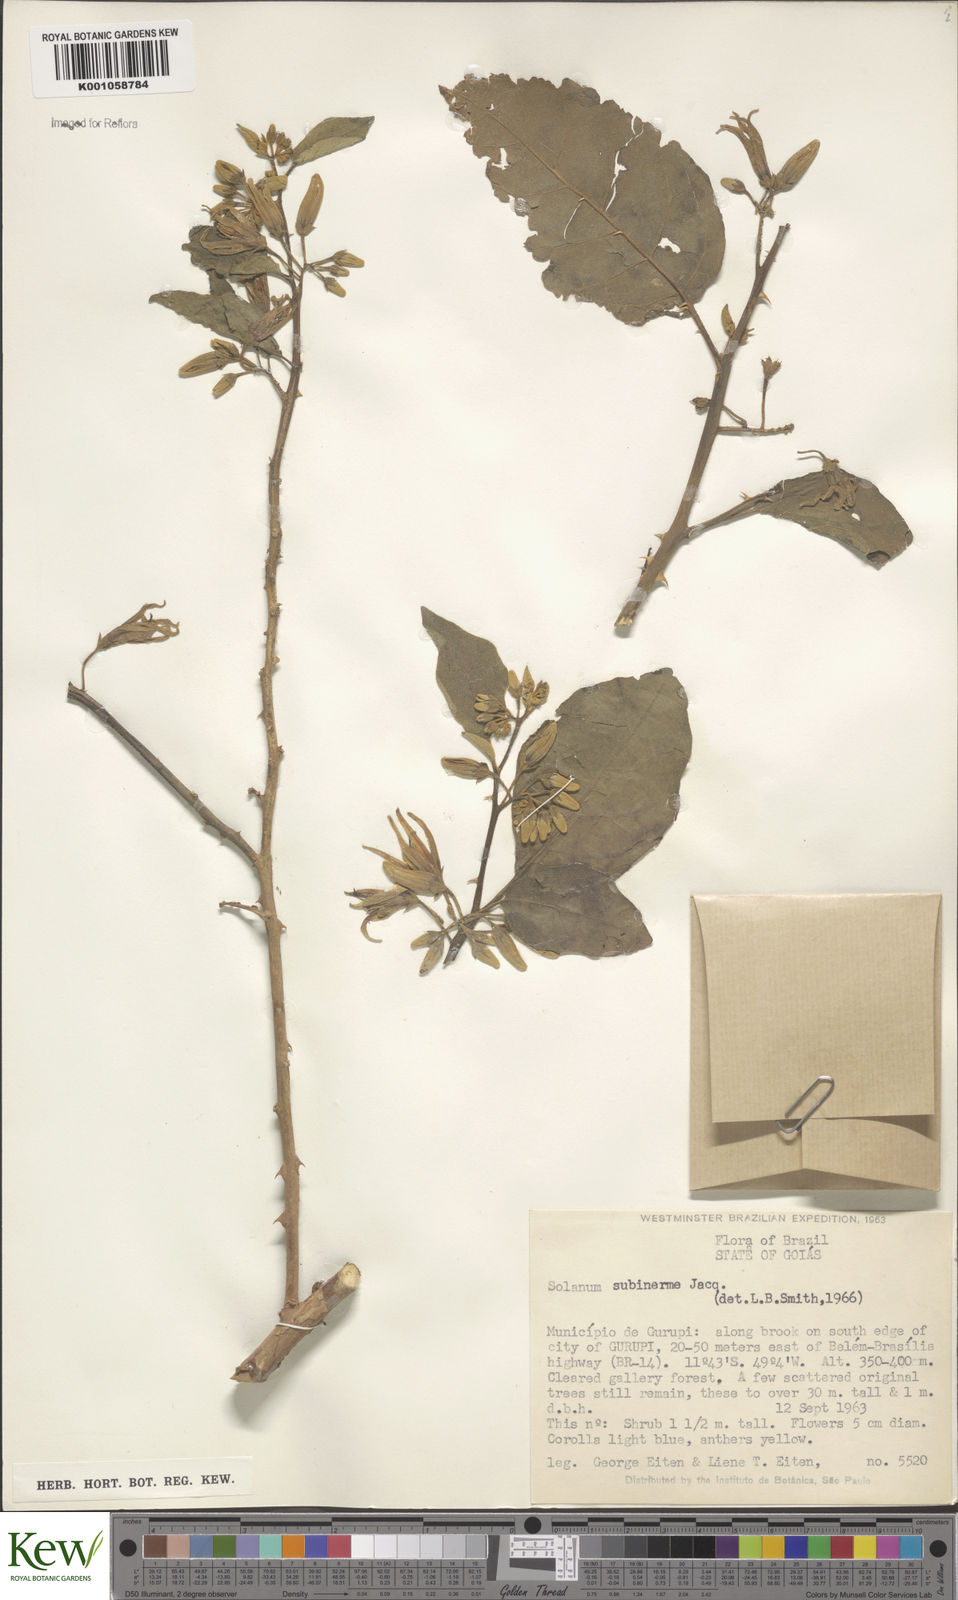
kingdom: Plantae
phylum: Tracheophyta
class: Magnoliopsida
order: Solanales
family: Solanaceae
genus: Solanum
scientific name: Solanum subinerme
